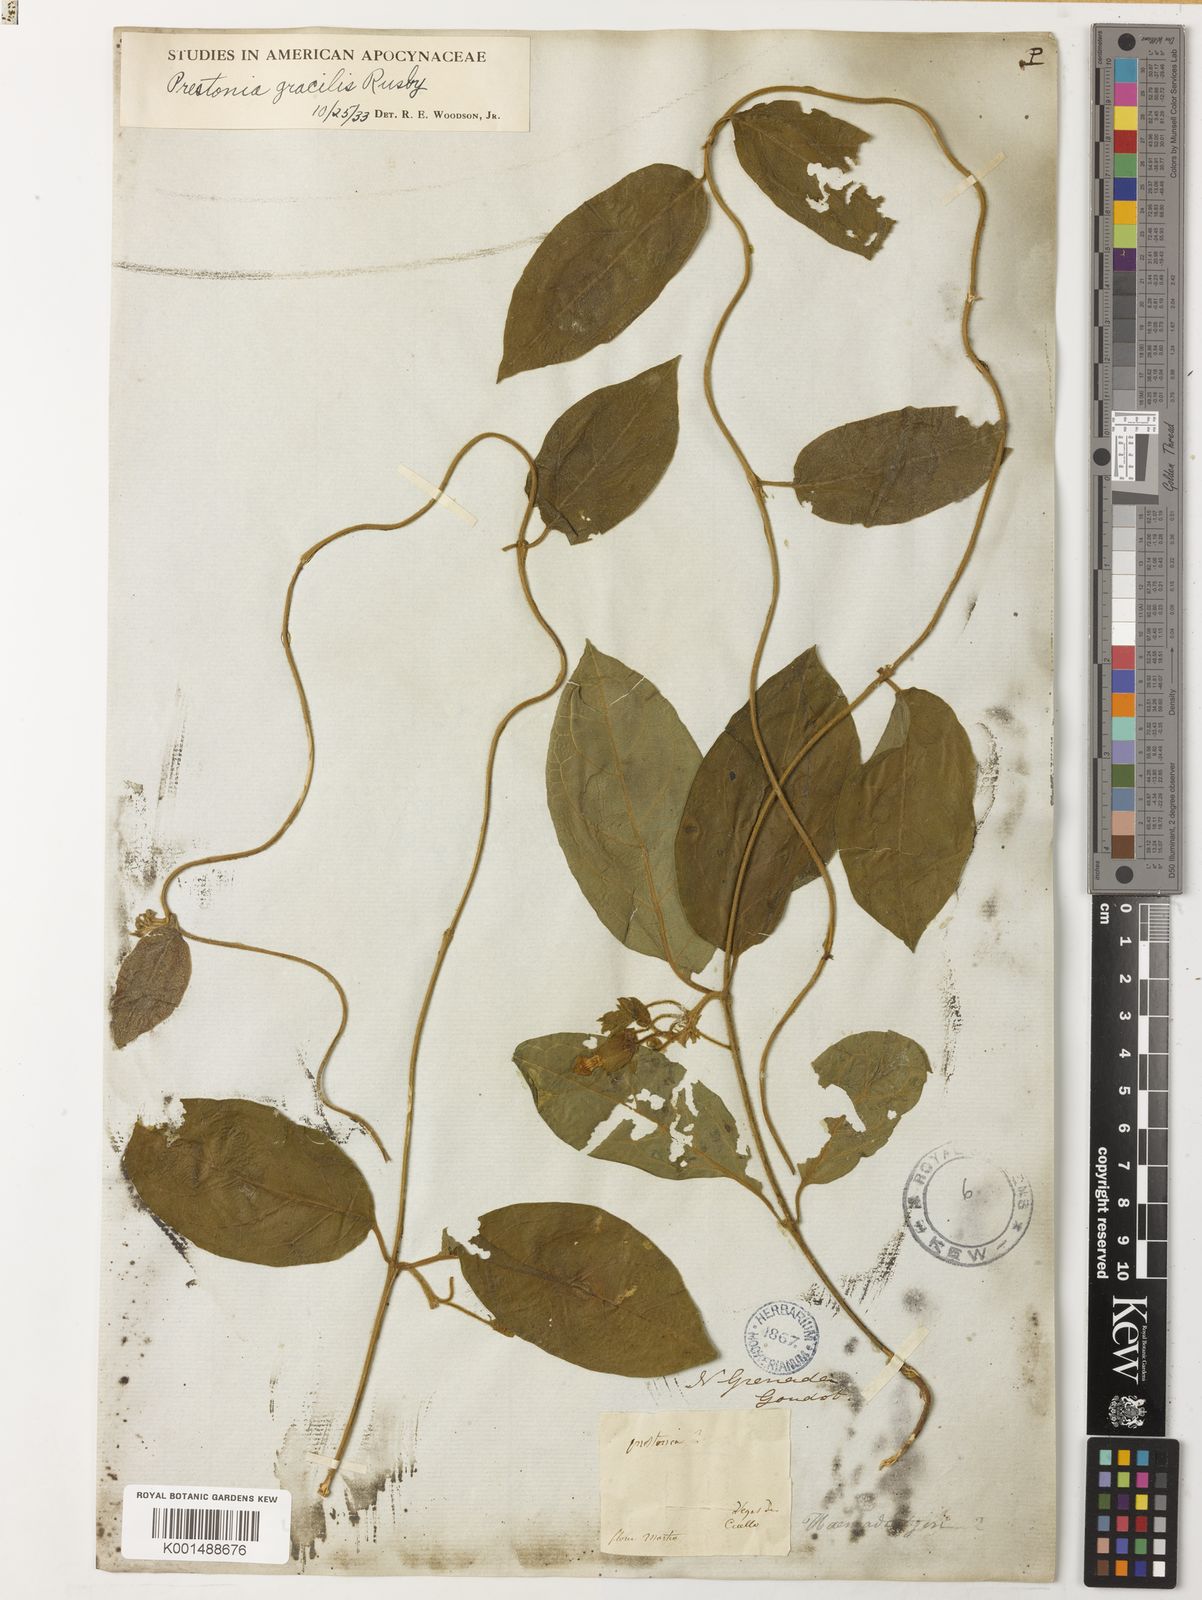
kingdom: Plantae
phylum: Tracheophyta
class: Magnoliopsida
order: Gentianales
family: Apocynaceae
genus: Prestonia
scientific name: Prestonia exerta
